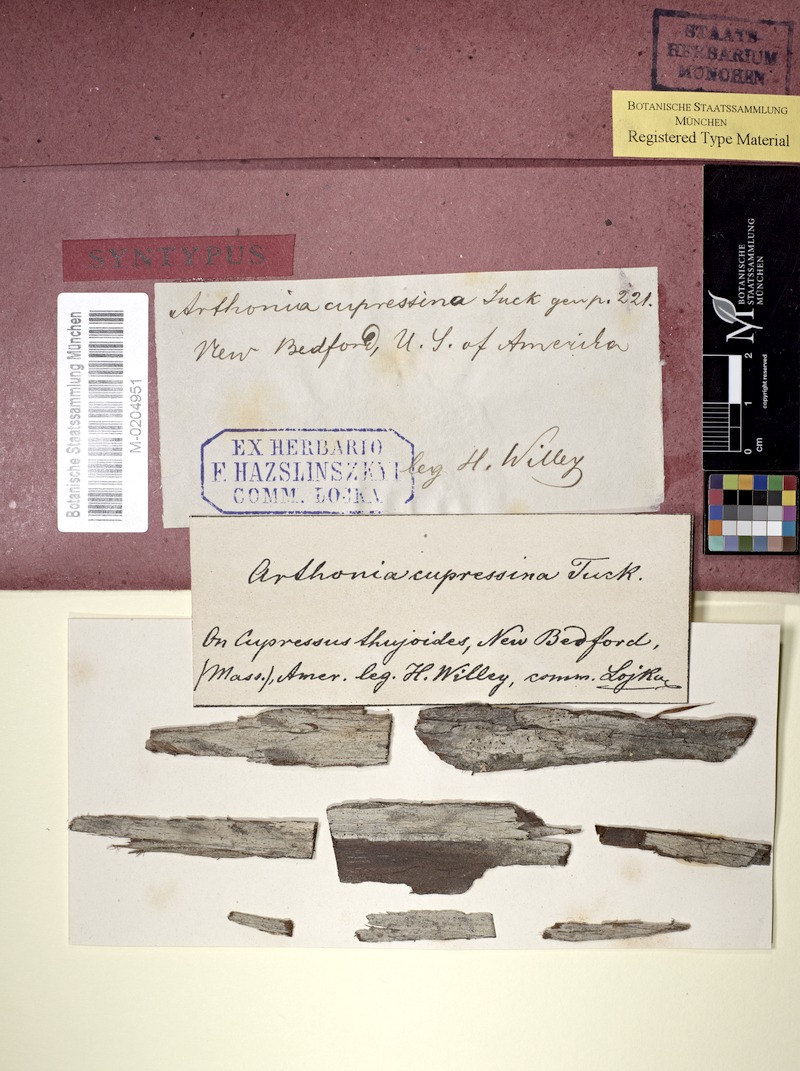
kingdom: Fungi
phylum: Ascomycota
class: Arthoniomycetes
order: Arthoniales
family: Arthoniaceae
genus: Arthonia
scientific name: Arthonia cupressina
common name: Golden spruce dots
